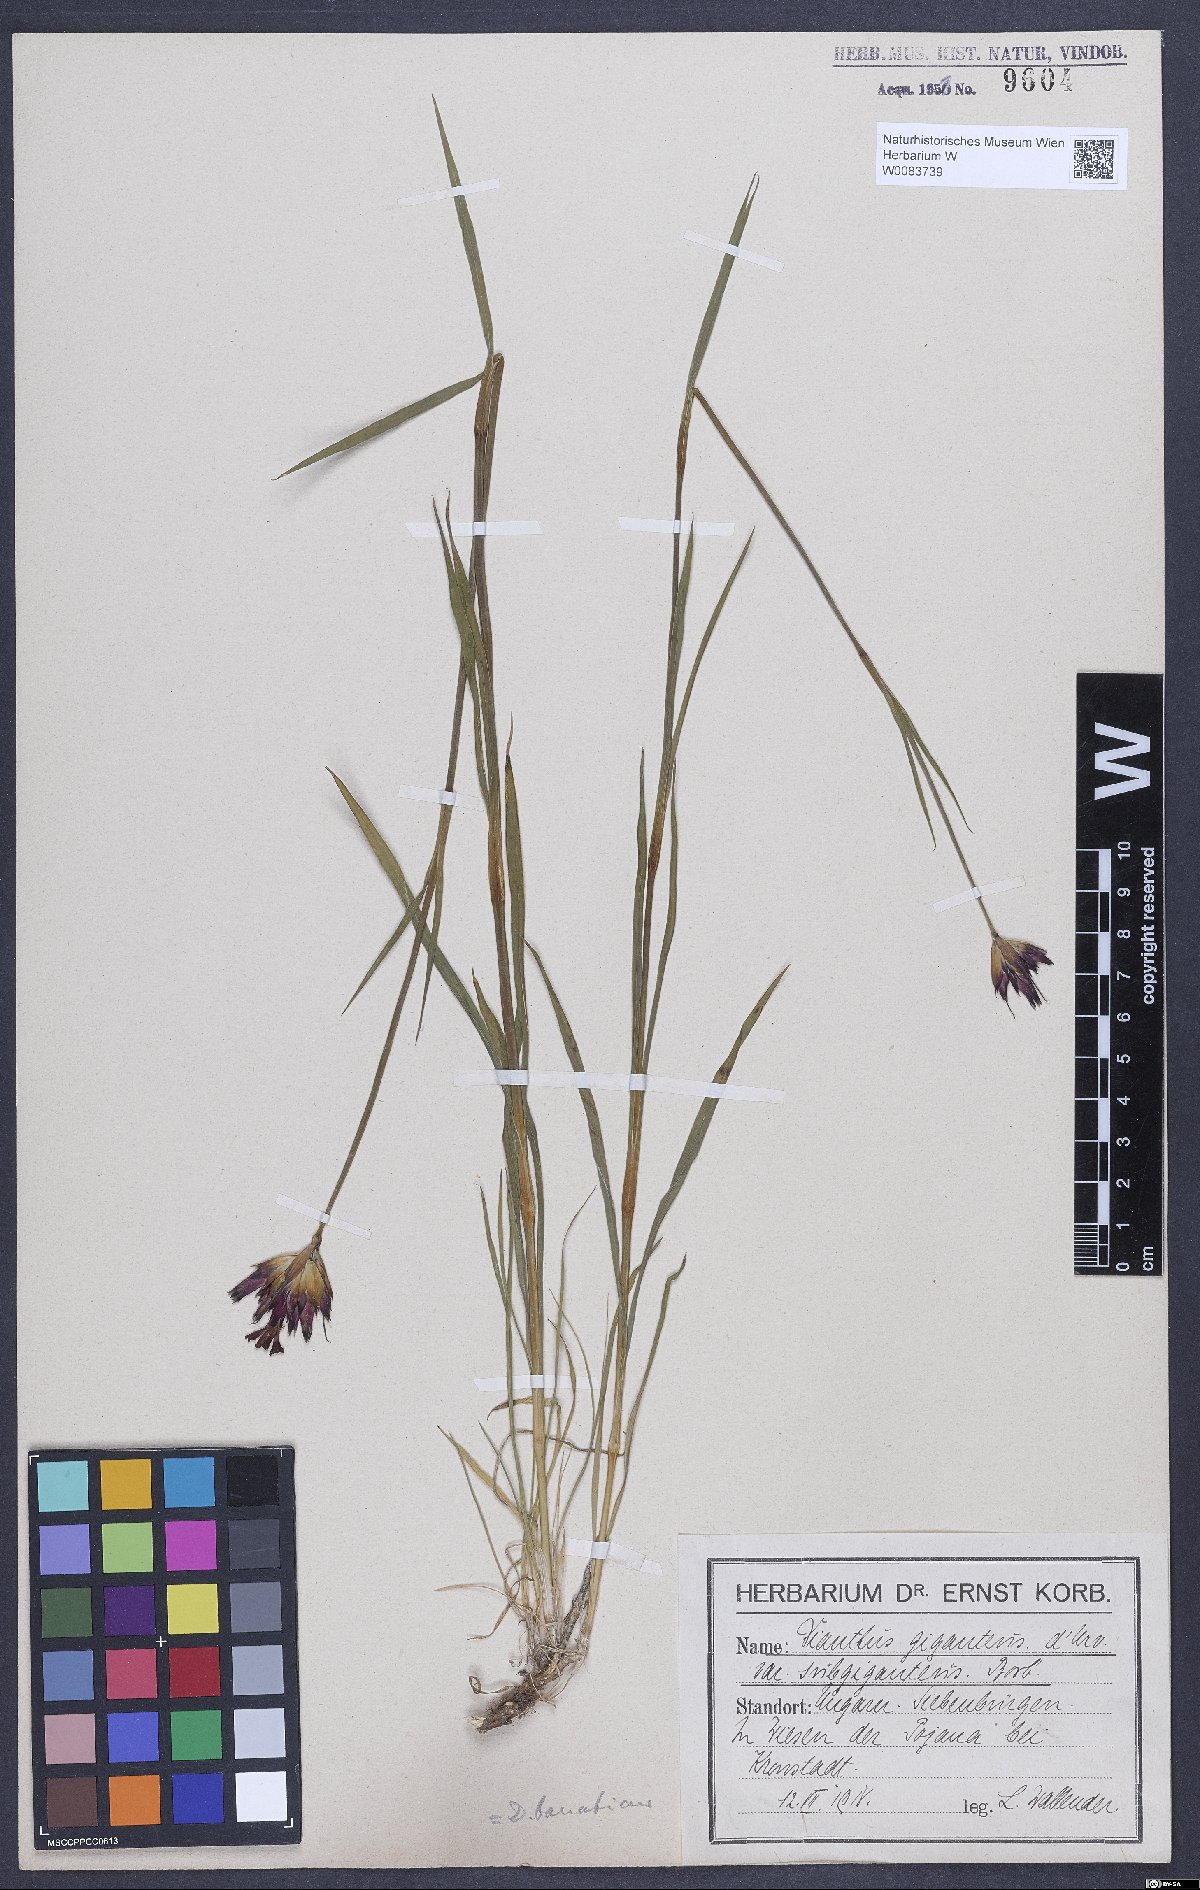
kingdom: Plantae
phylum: Tracheophyta
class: Magnoliopsida
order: Caryophyllales
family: Caryophyllaceae
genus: Dianthus
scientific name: Dianthus giganteus
